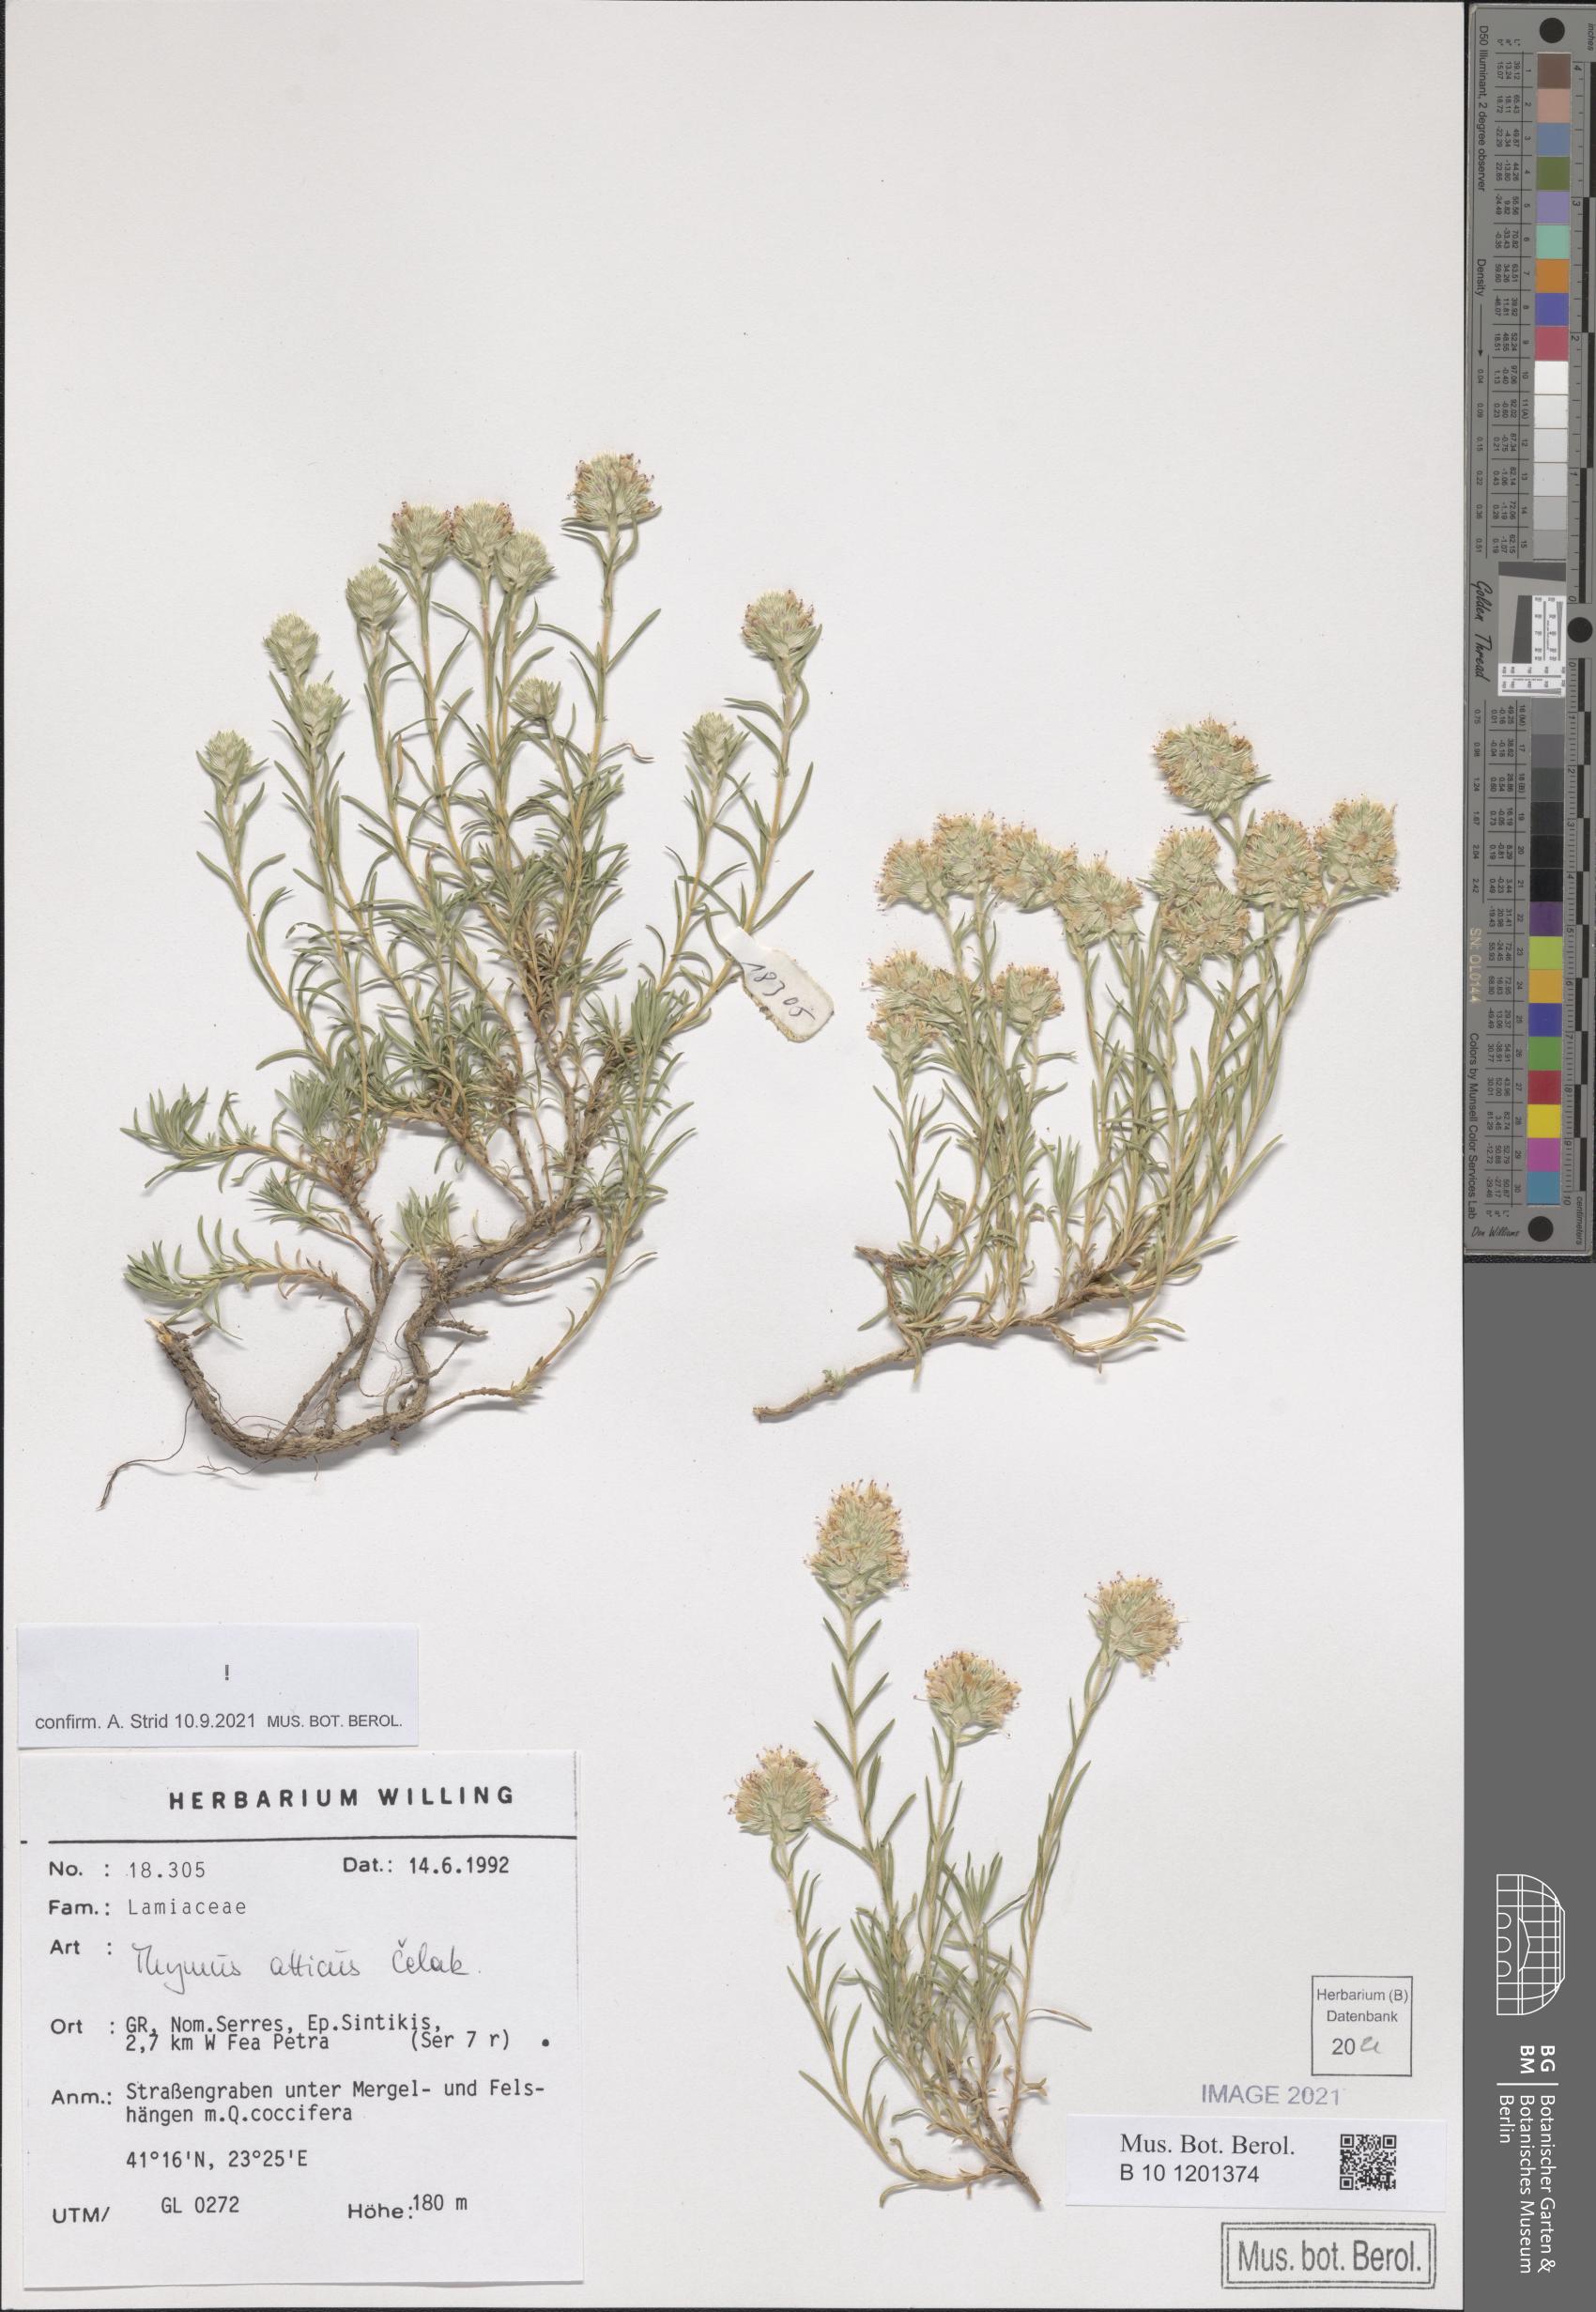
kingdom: Plantae
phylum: Tracheophyta
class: Magnoliopsida
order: Lamiales
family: Lamiaceae
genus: Thymus
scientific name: Thymus atticus
